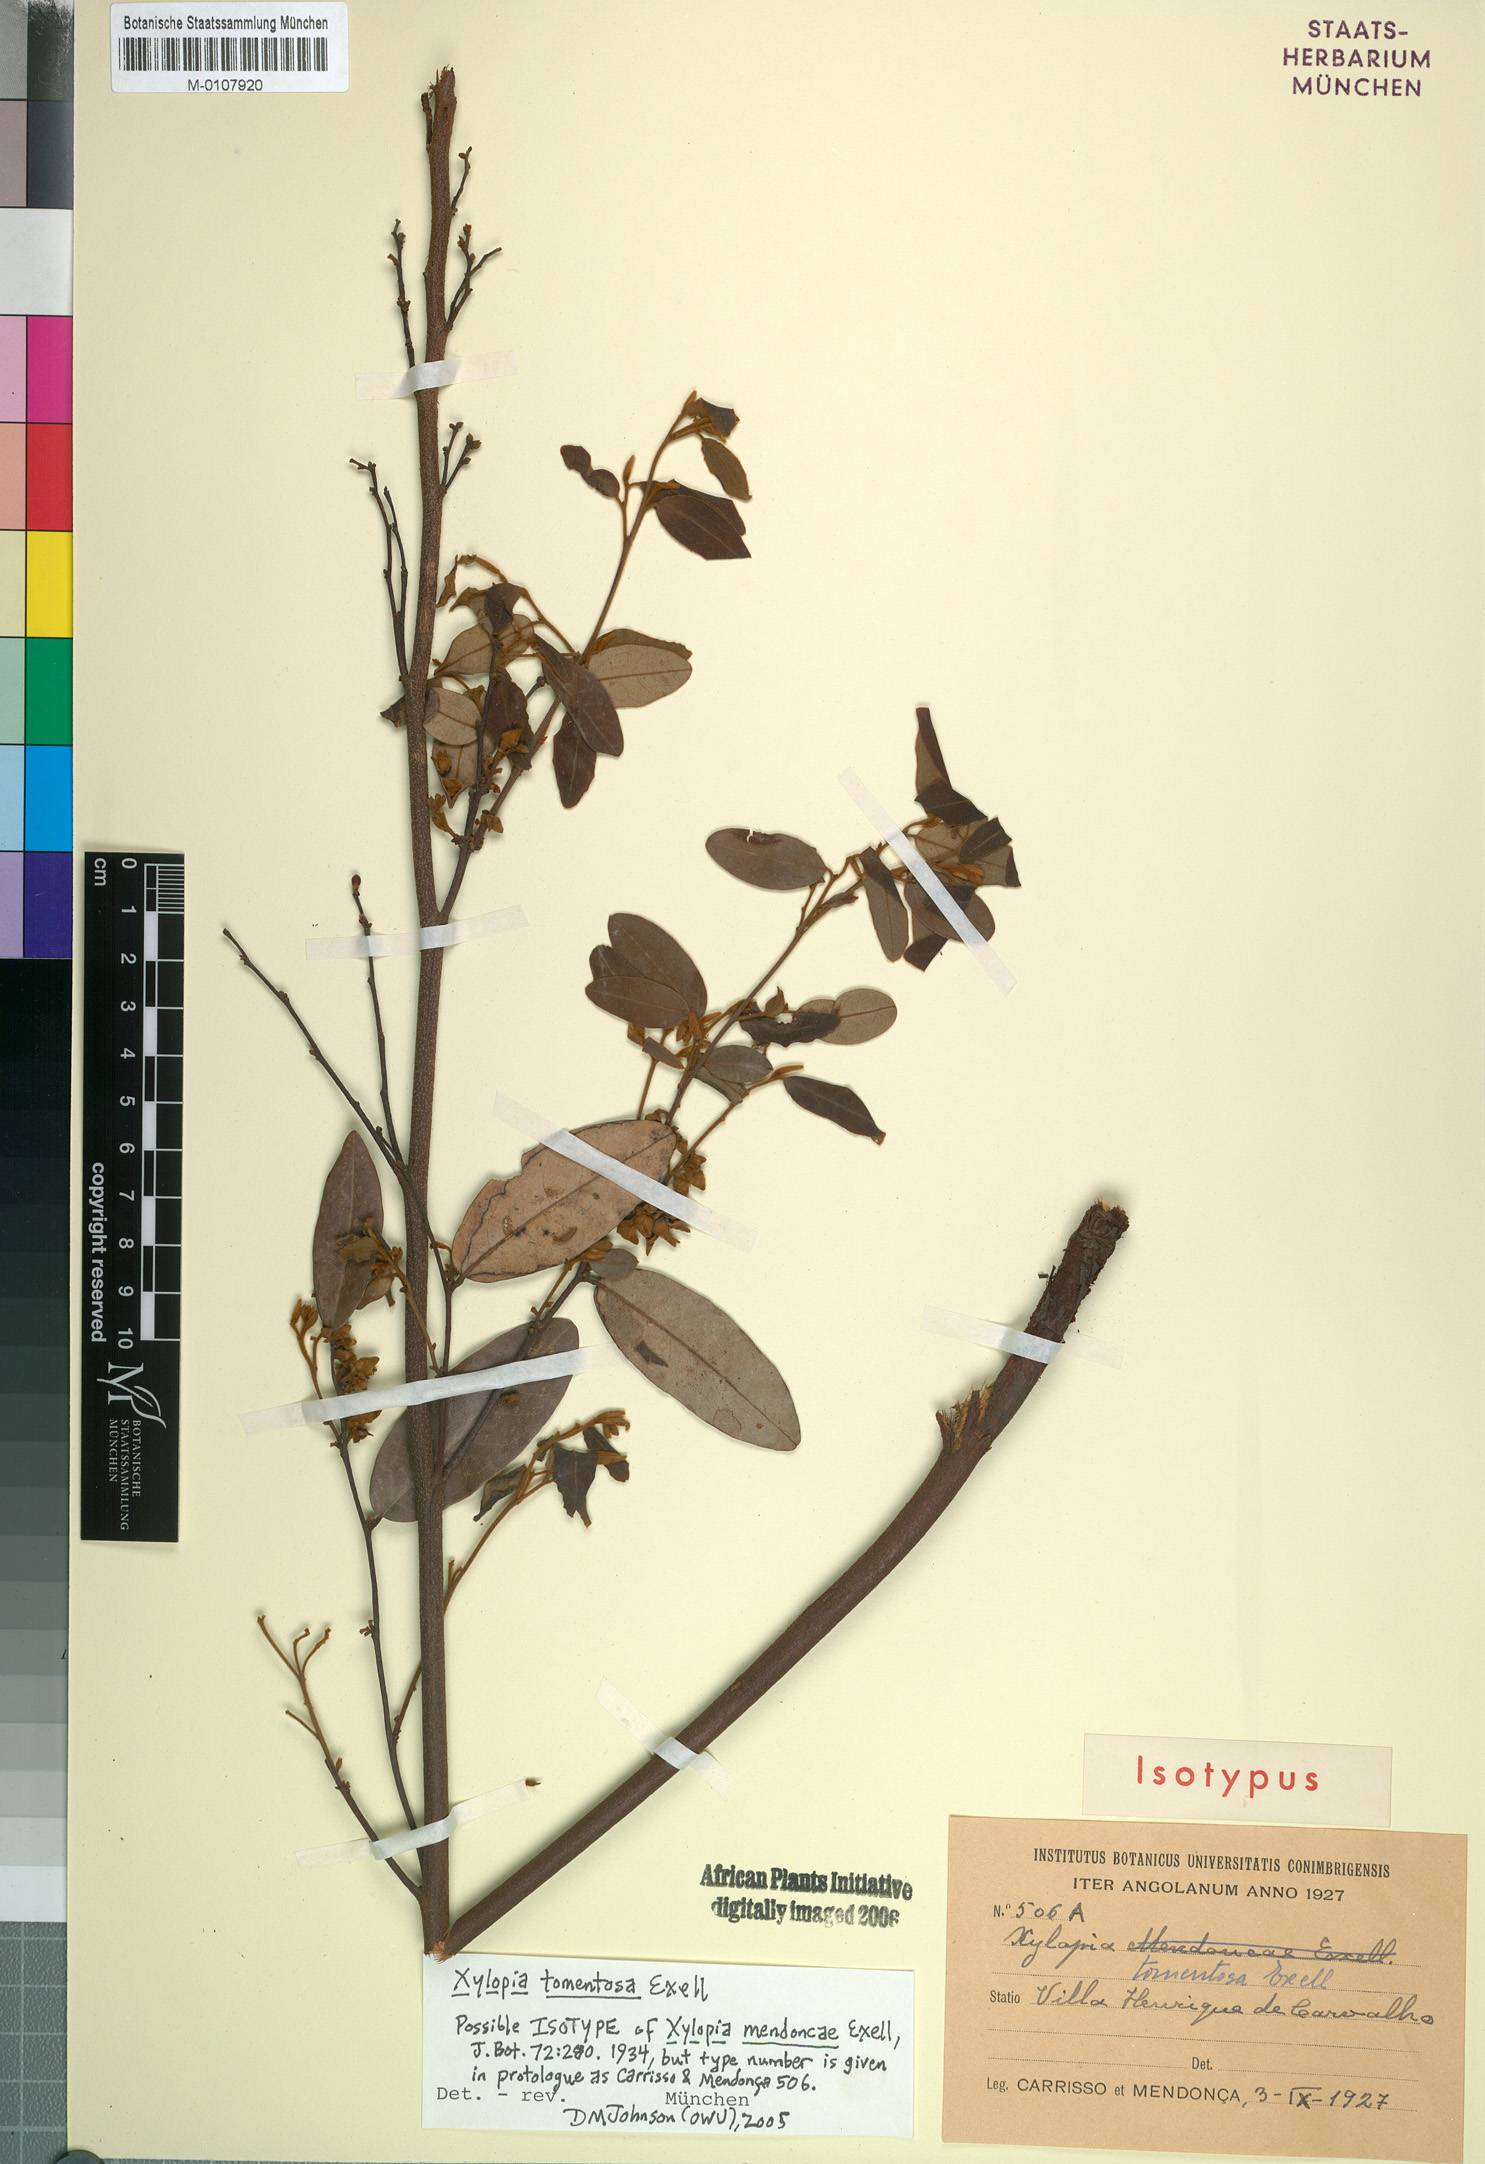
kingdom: Plantae
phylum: Tracheophyta
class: Magnoliopsida
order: Magnoliales
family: Annonaceae
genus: Xylopia
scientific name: Xylopia tomentosa
